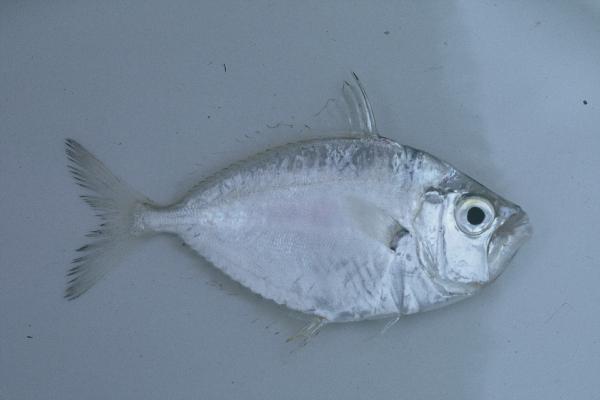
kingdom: Animalia
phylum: Chordata
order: Perciformes
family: Leiognathidae
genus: Leiognathus
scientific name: Leiognathus equulus
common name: Common ponyfish
